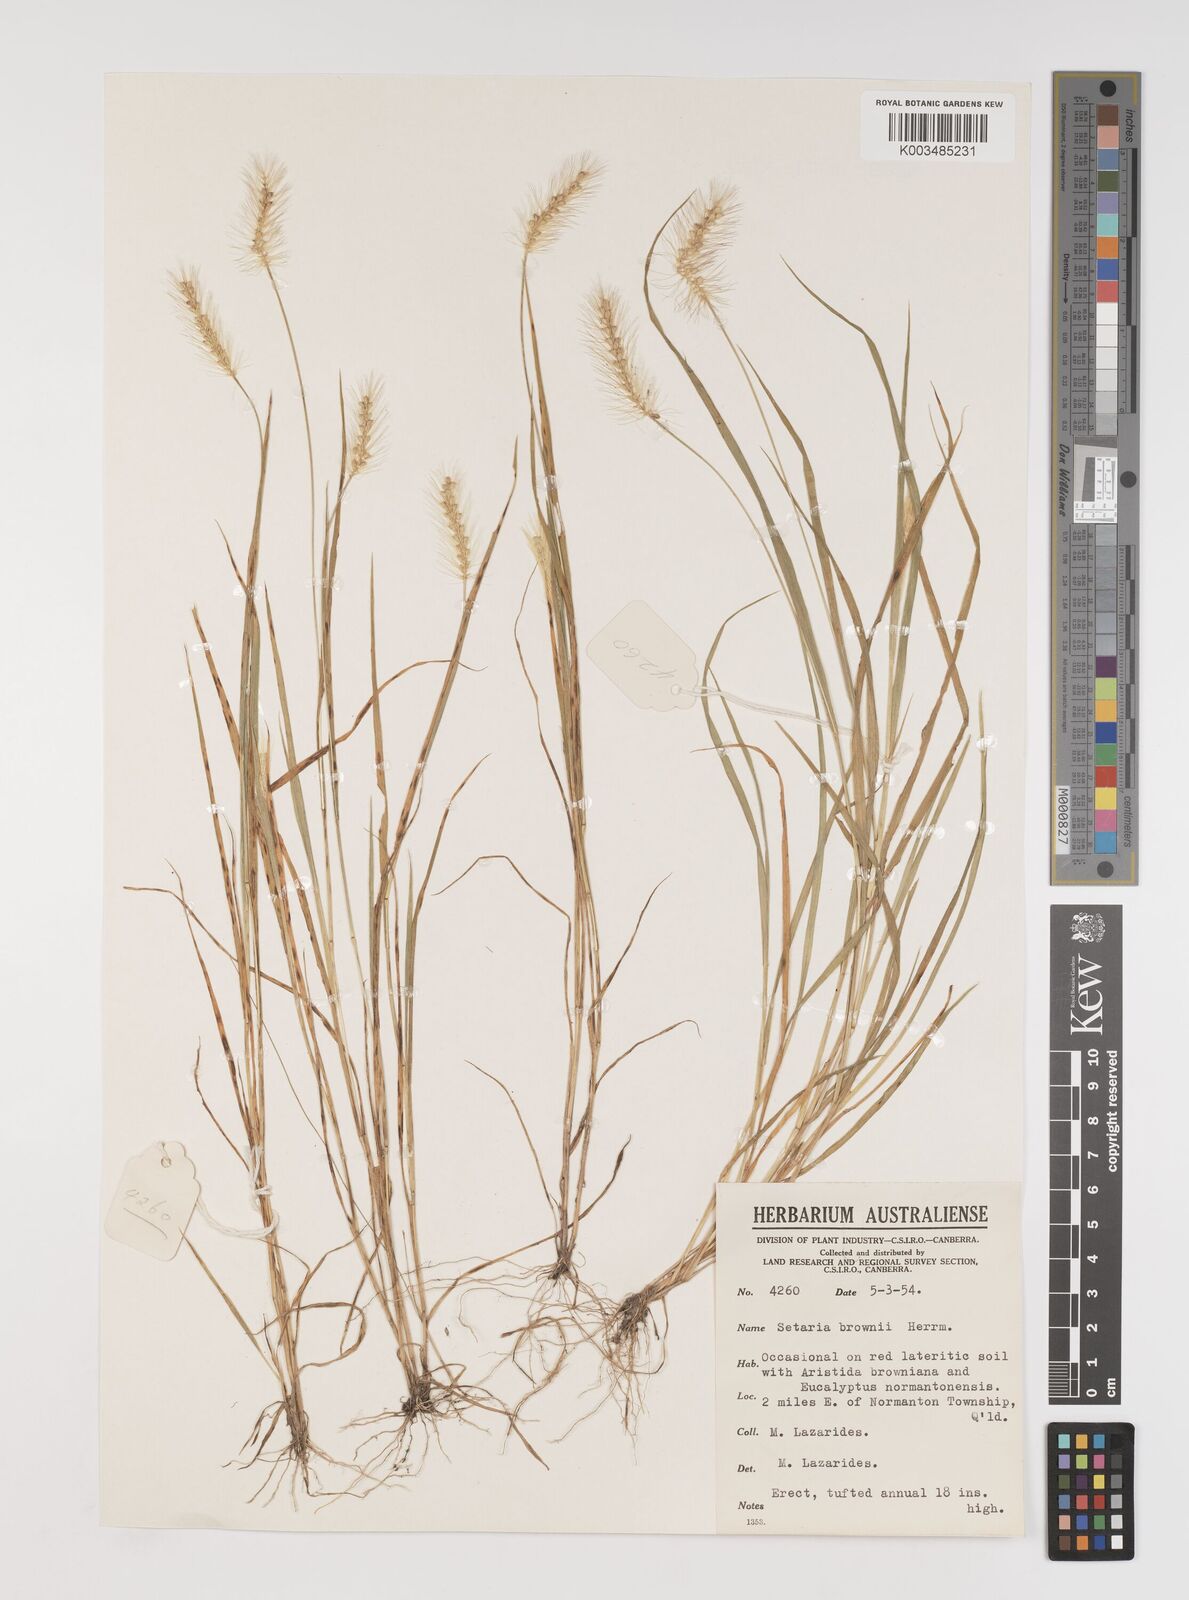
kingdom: Plantae
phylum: Tracheophyta
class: Liliopsida
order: Poales
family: Poaceae
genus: Setaria
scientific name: Setaria surgens
